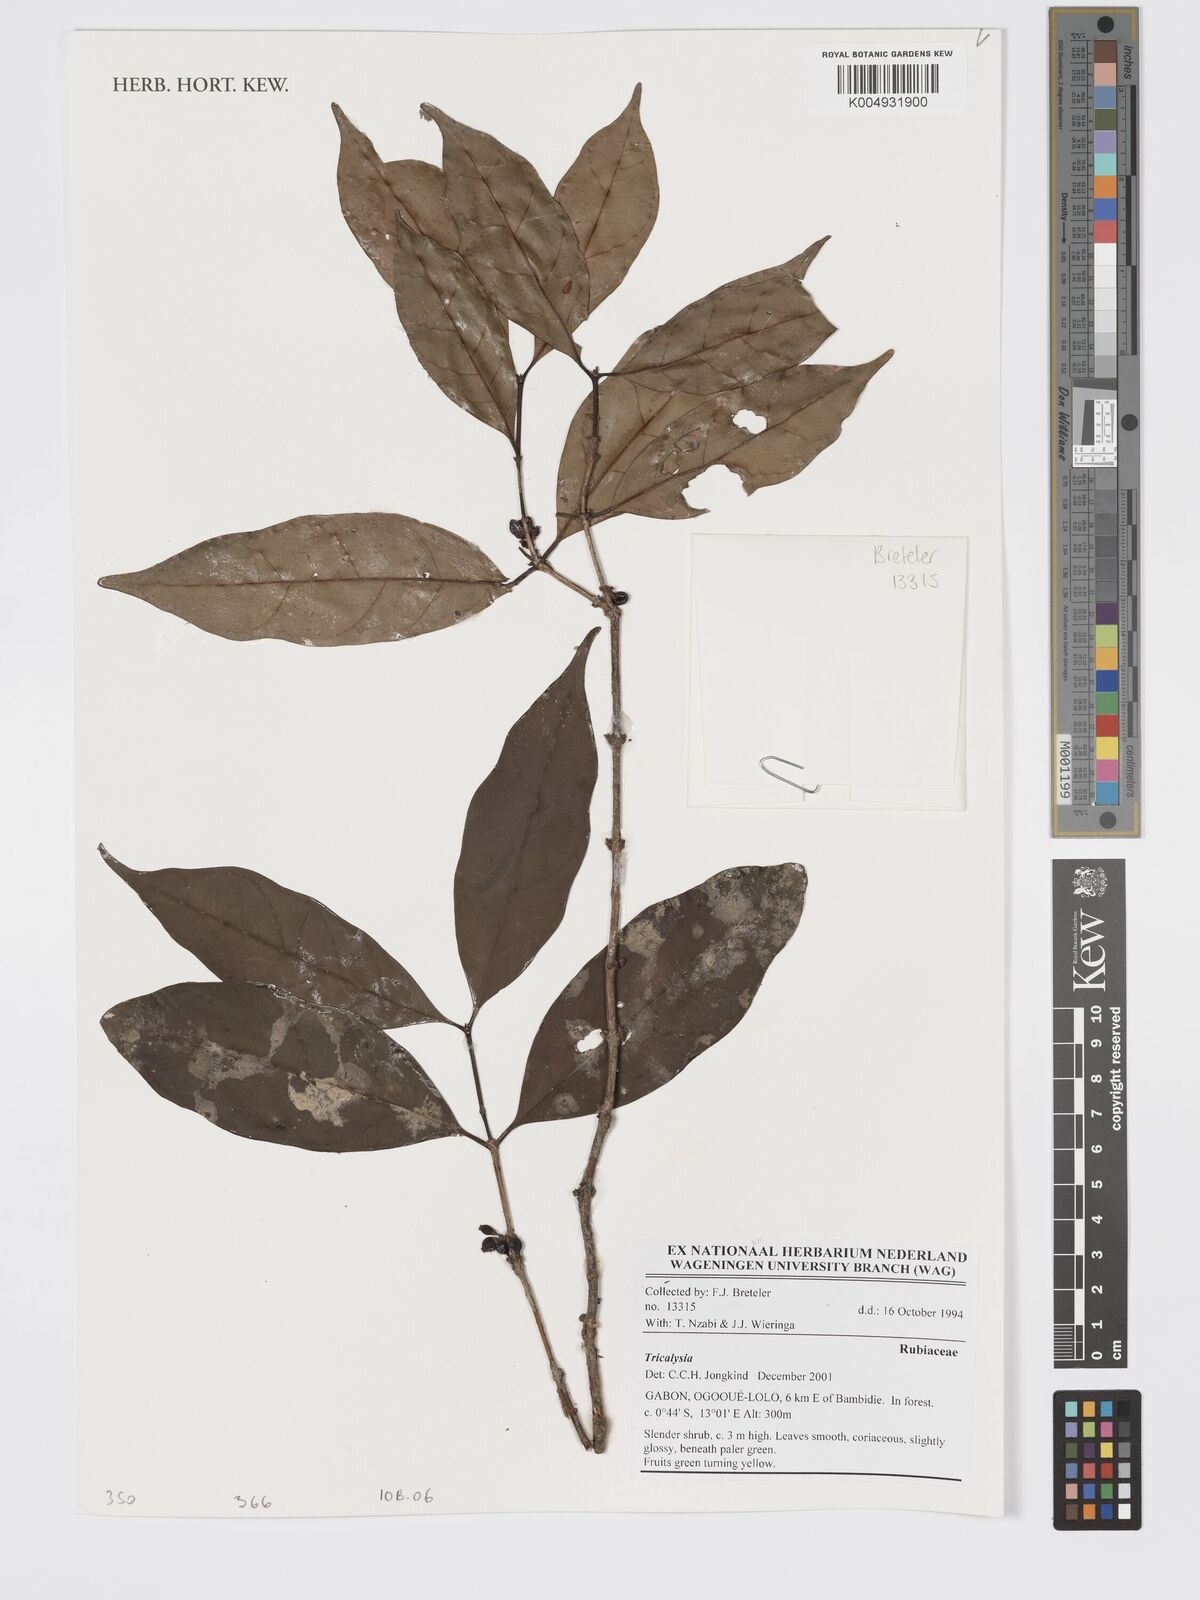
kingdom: Plantae
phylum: Tracheophyta
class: Magnoliopsida
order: Gentianales
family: Rubiaceae
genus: Tricalysia
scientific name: Tricalysia
